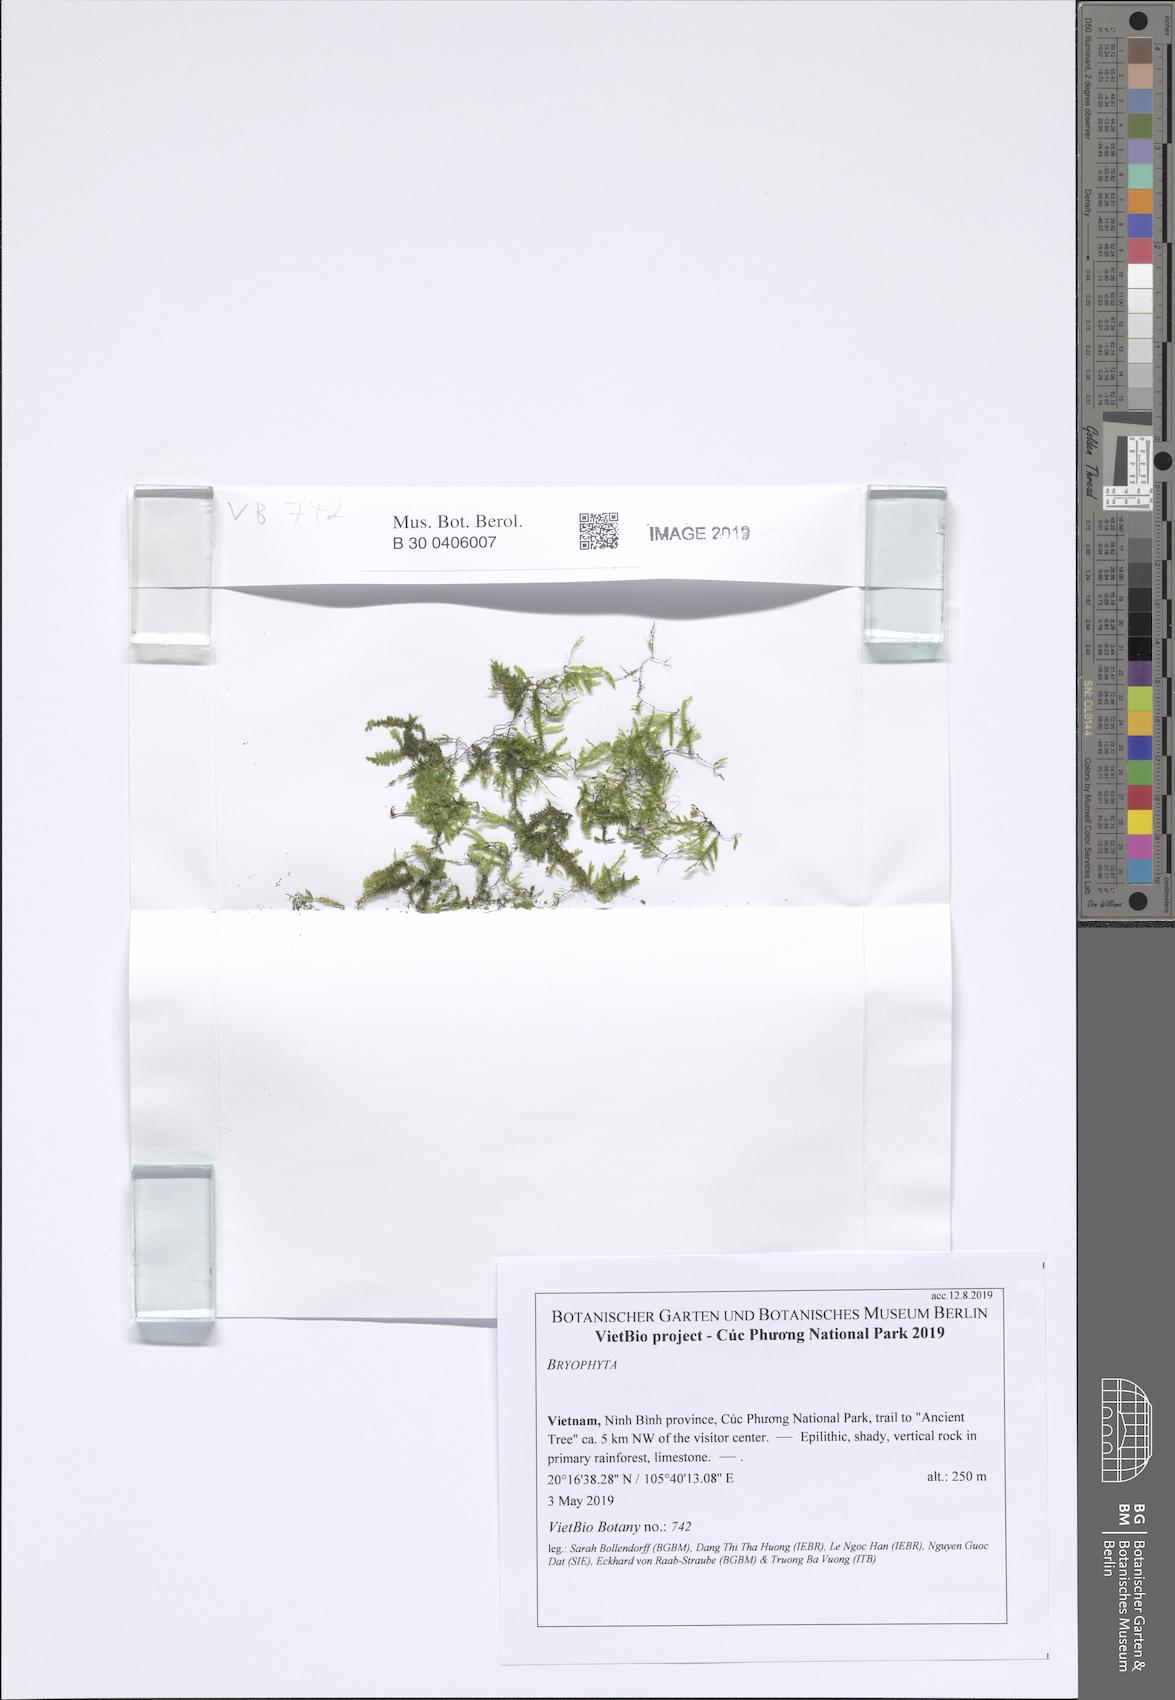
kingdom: Plantae
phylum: Bryophyta
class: Bryopsida
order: Hypnales
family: Neckeraceae
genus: Circulifolium
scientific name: Circulifolium exiguum
